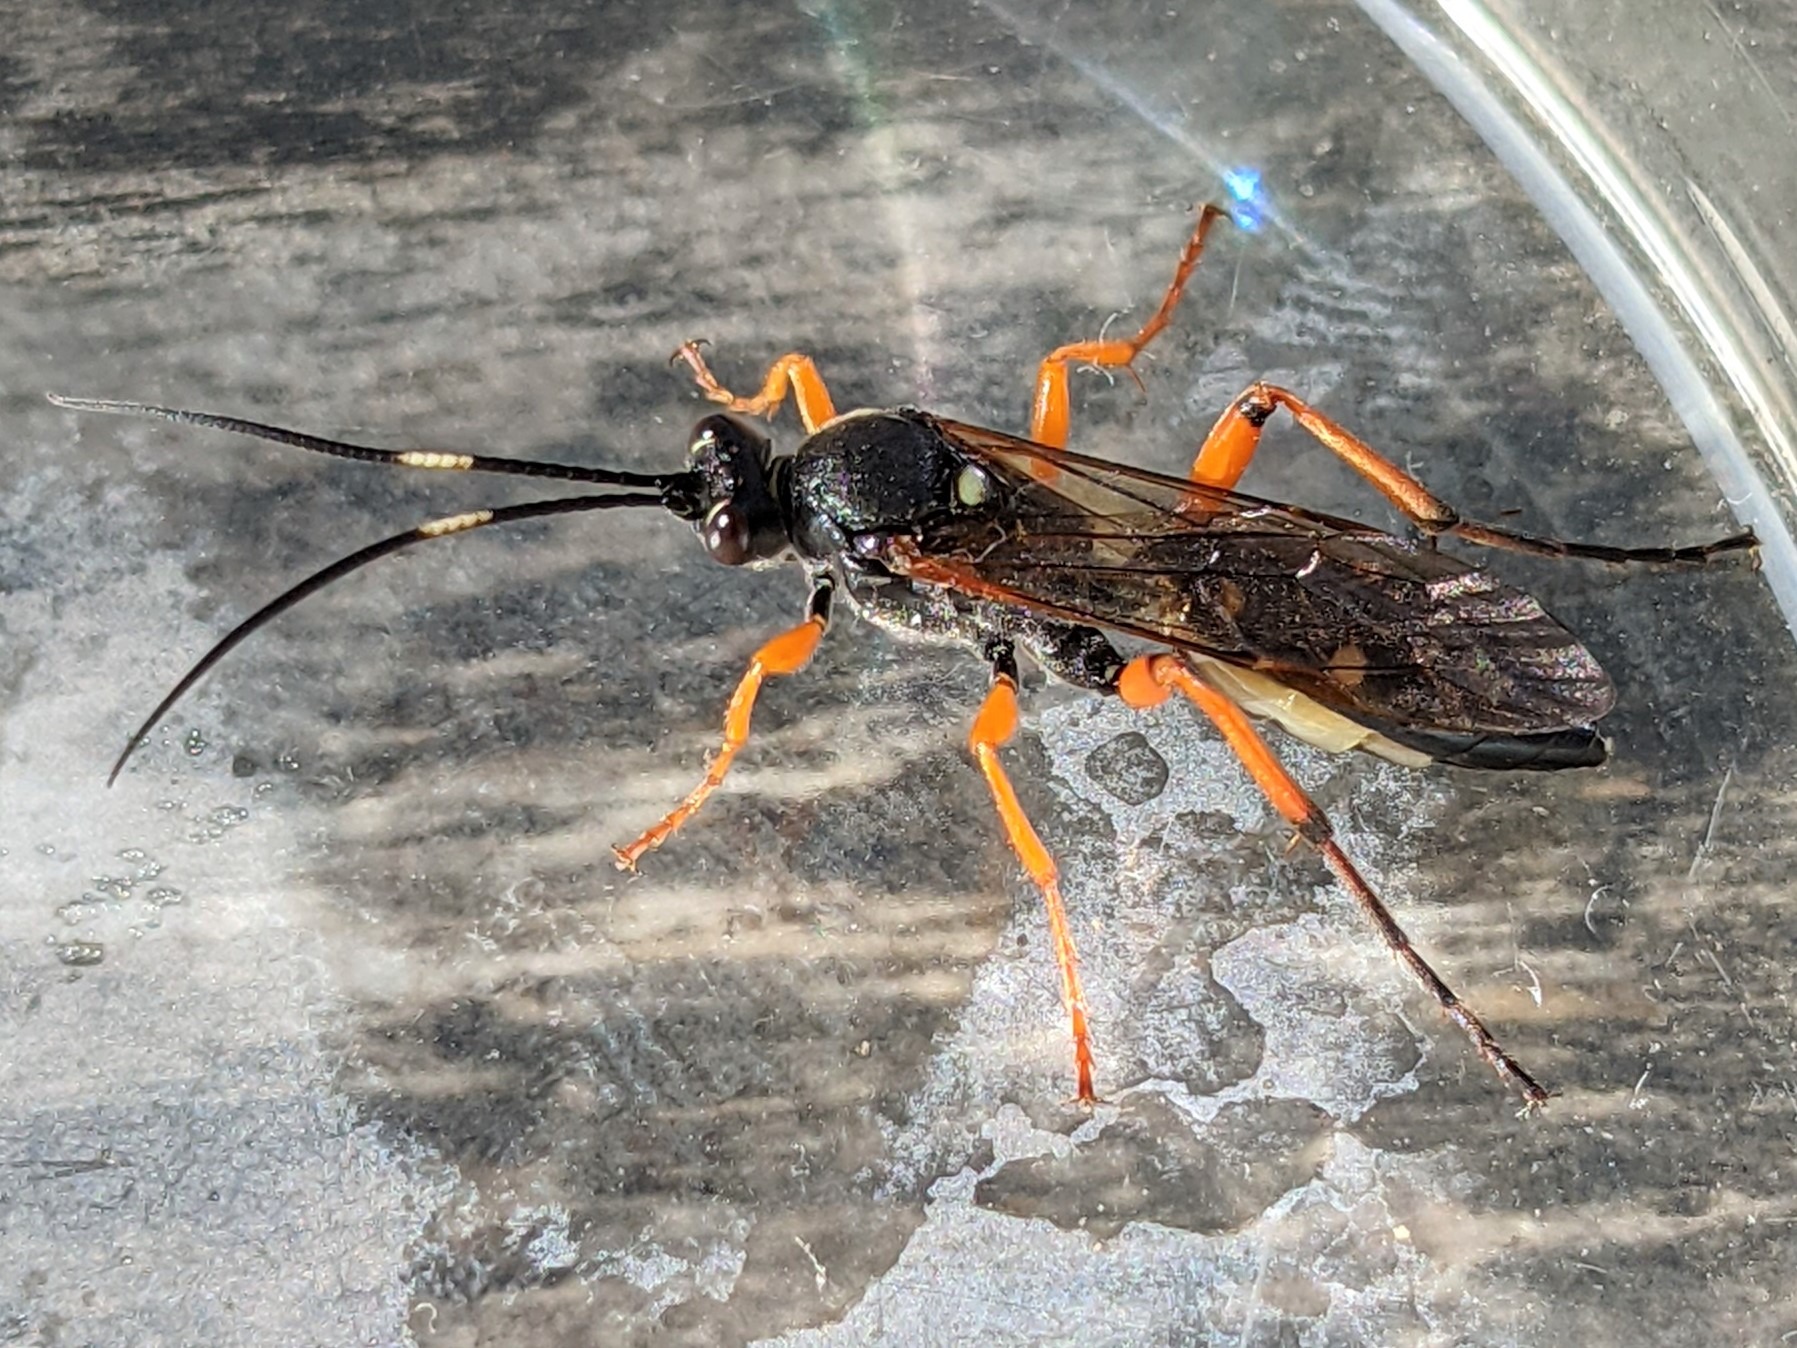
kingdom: Animalia
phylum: Arthropoda
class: Insecta
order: Hymenoptera
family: Ichneumonidae
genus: Diphyus
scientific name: Diphyus quadripunctorius
